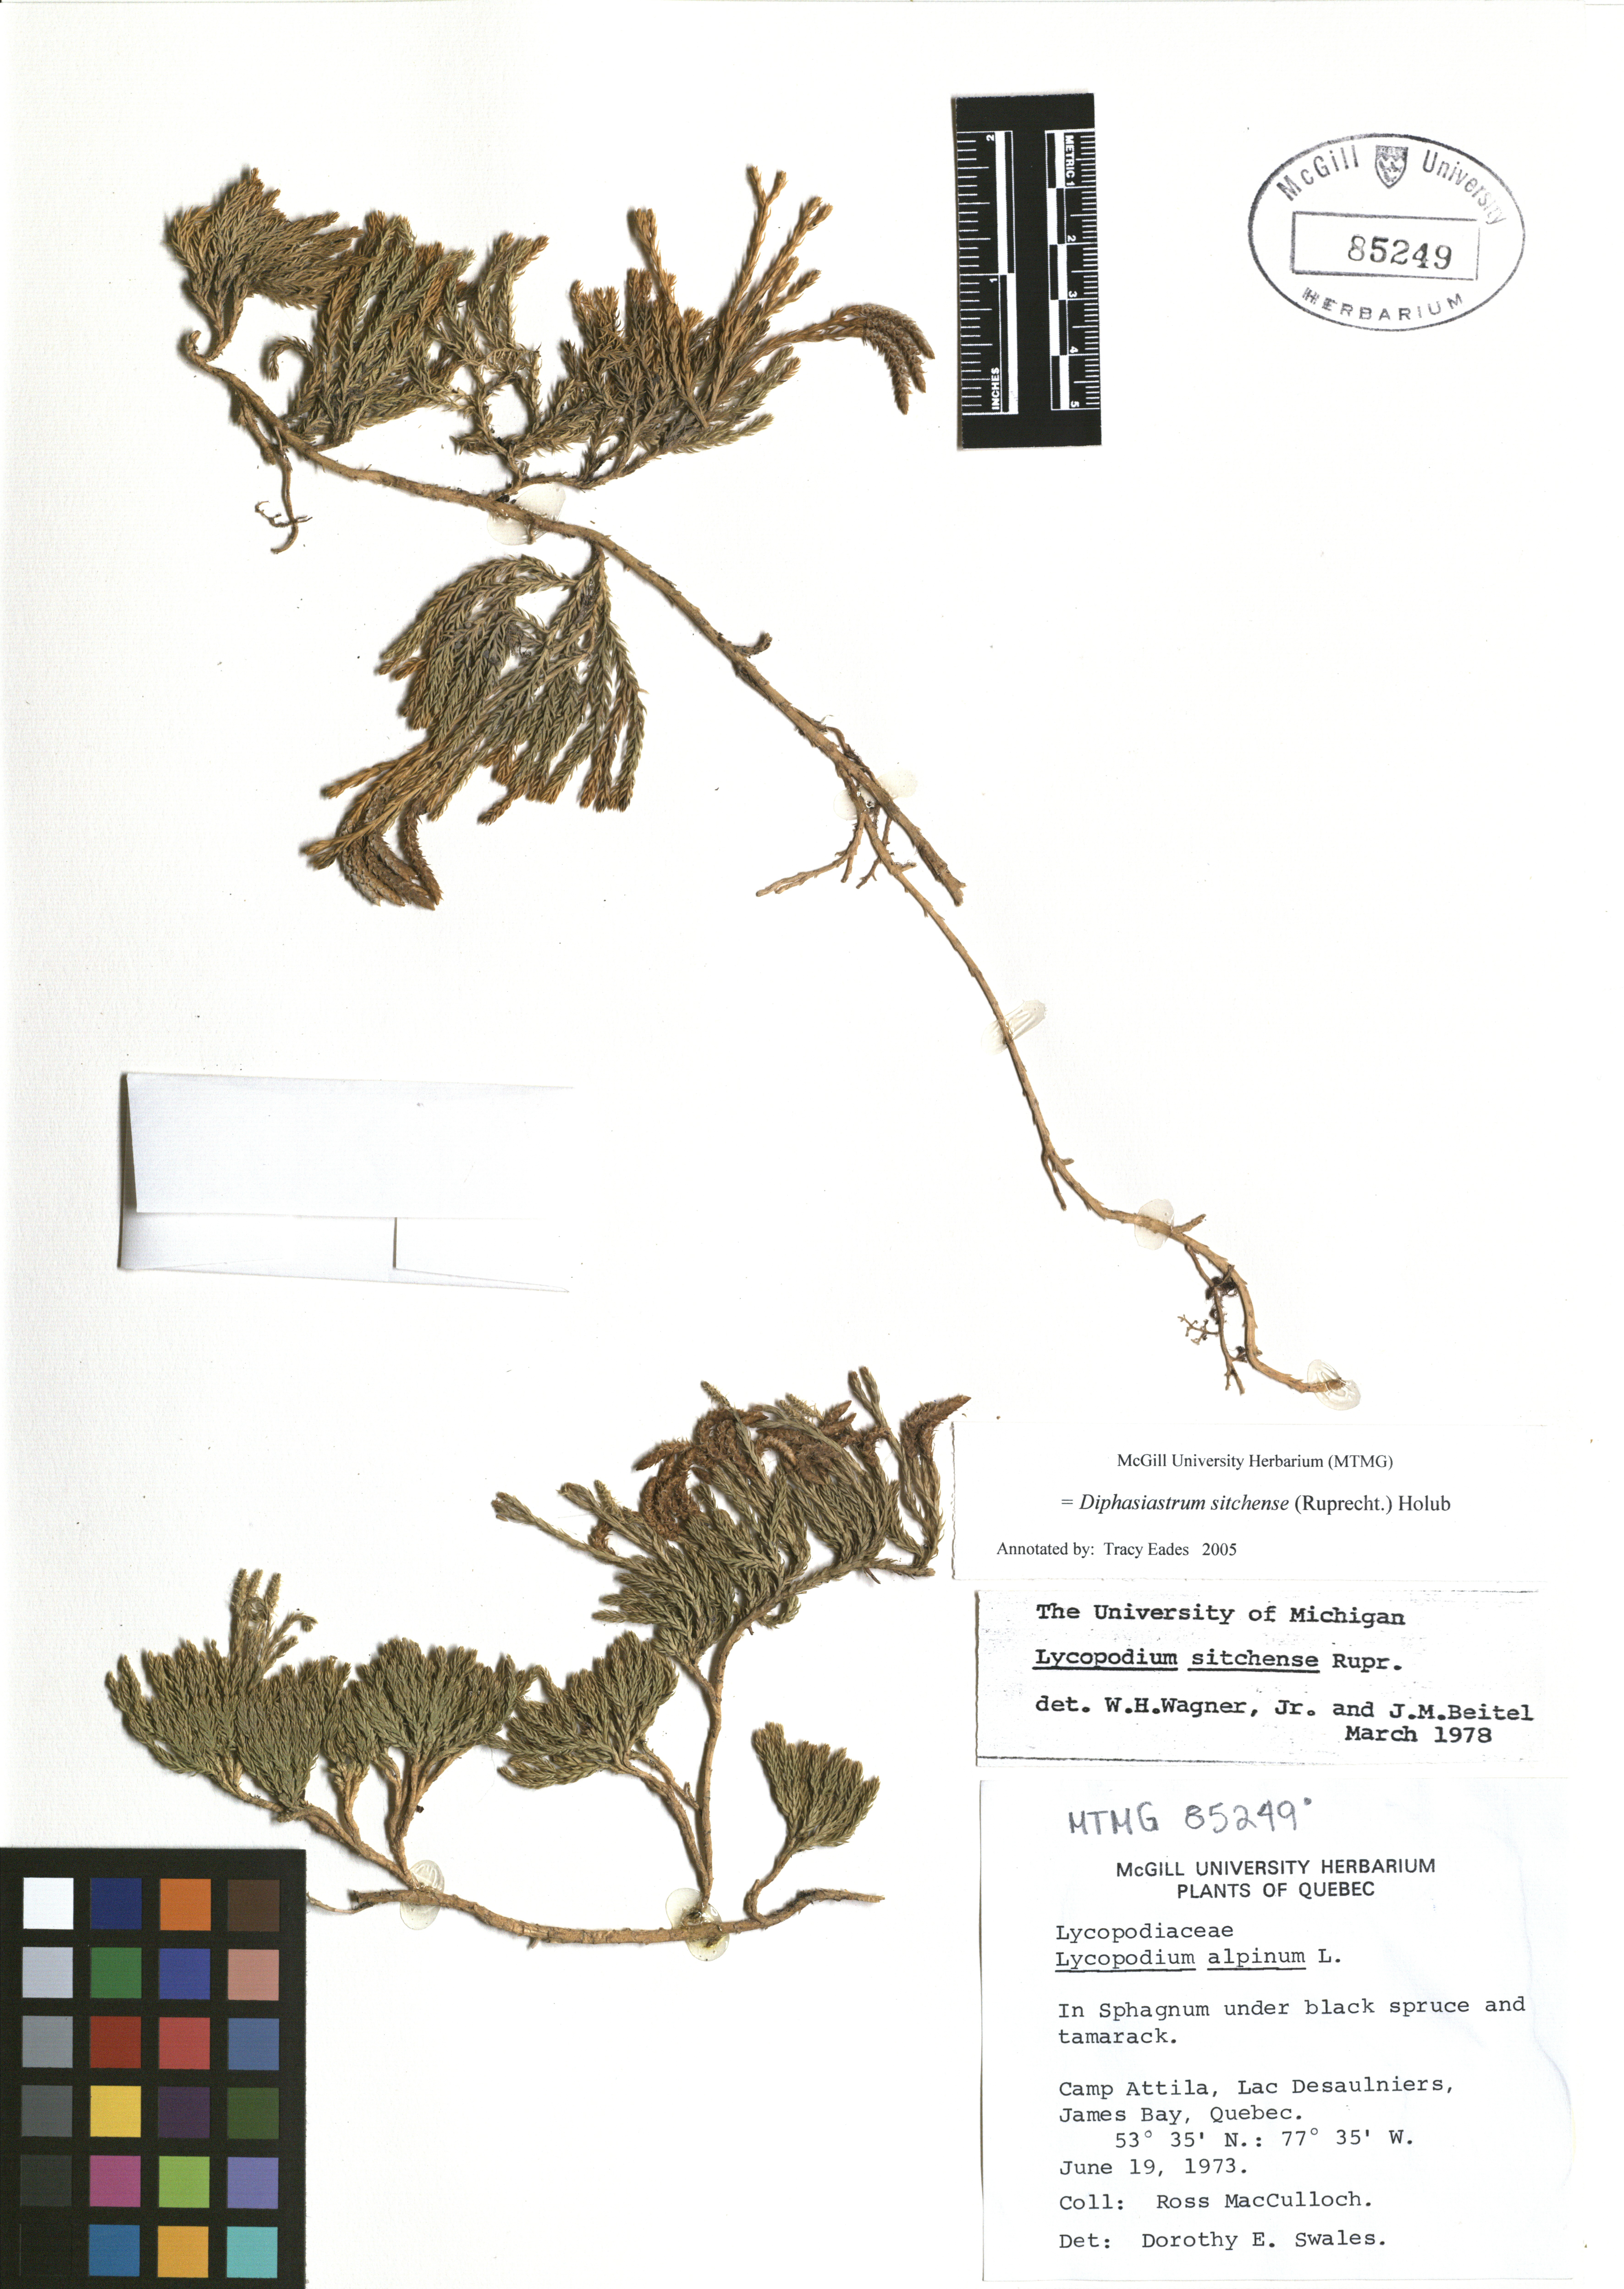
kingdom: Plantae
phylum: Tracheophyta
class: Lycopodiopsida
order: Lycopodiales
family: Lycopodiaceae
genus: Diphasiastrum
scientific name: Diphasiastrum sitchense
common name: Alaska clubmoss
